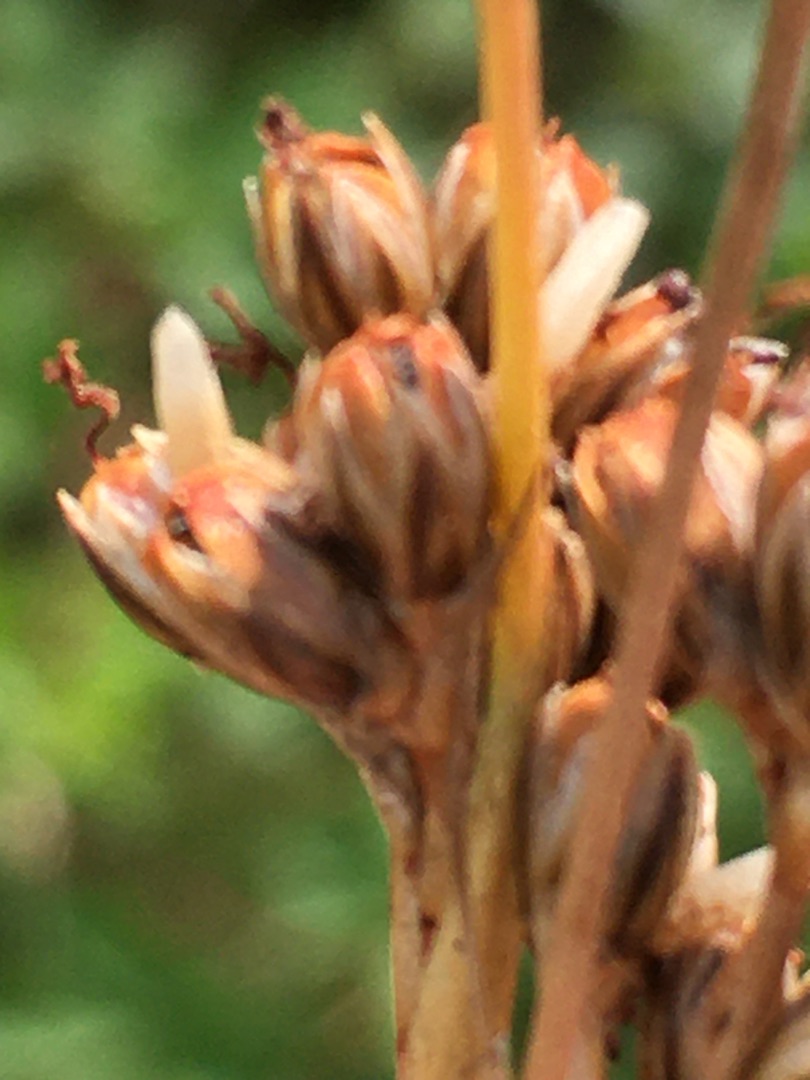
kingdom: Plantae
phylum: Tracheophyta
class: Liliopsida
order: Poales
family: Juncaceae
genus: Juncus
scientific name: Juncus squarrosus
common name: Børste-siv
